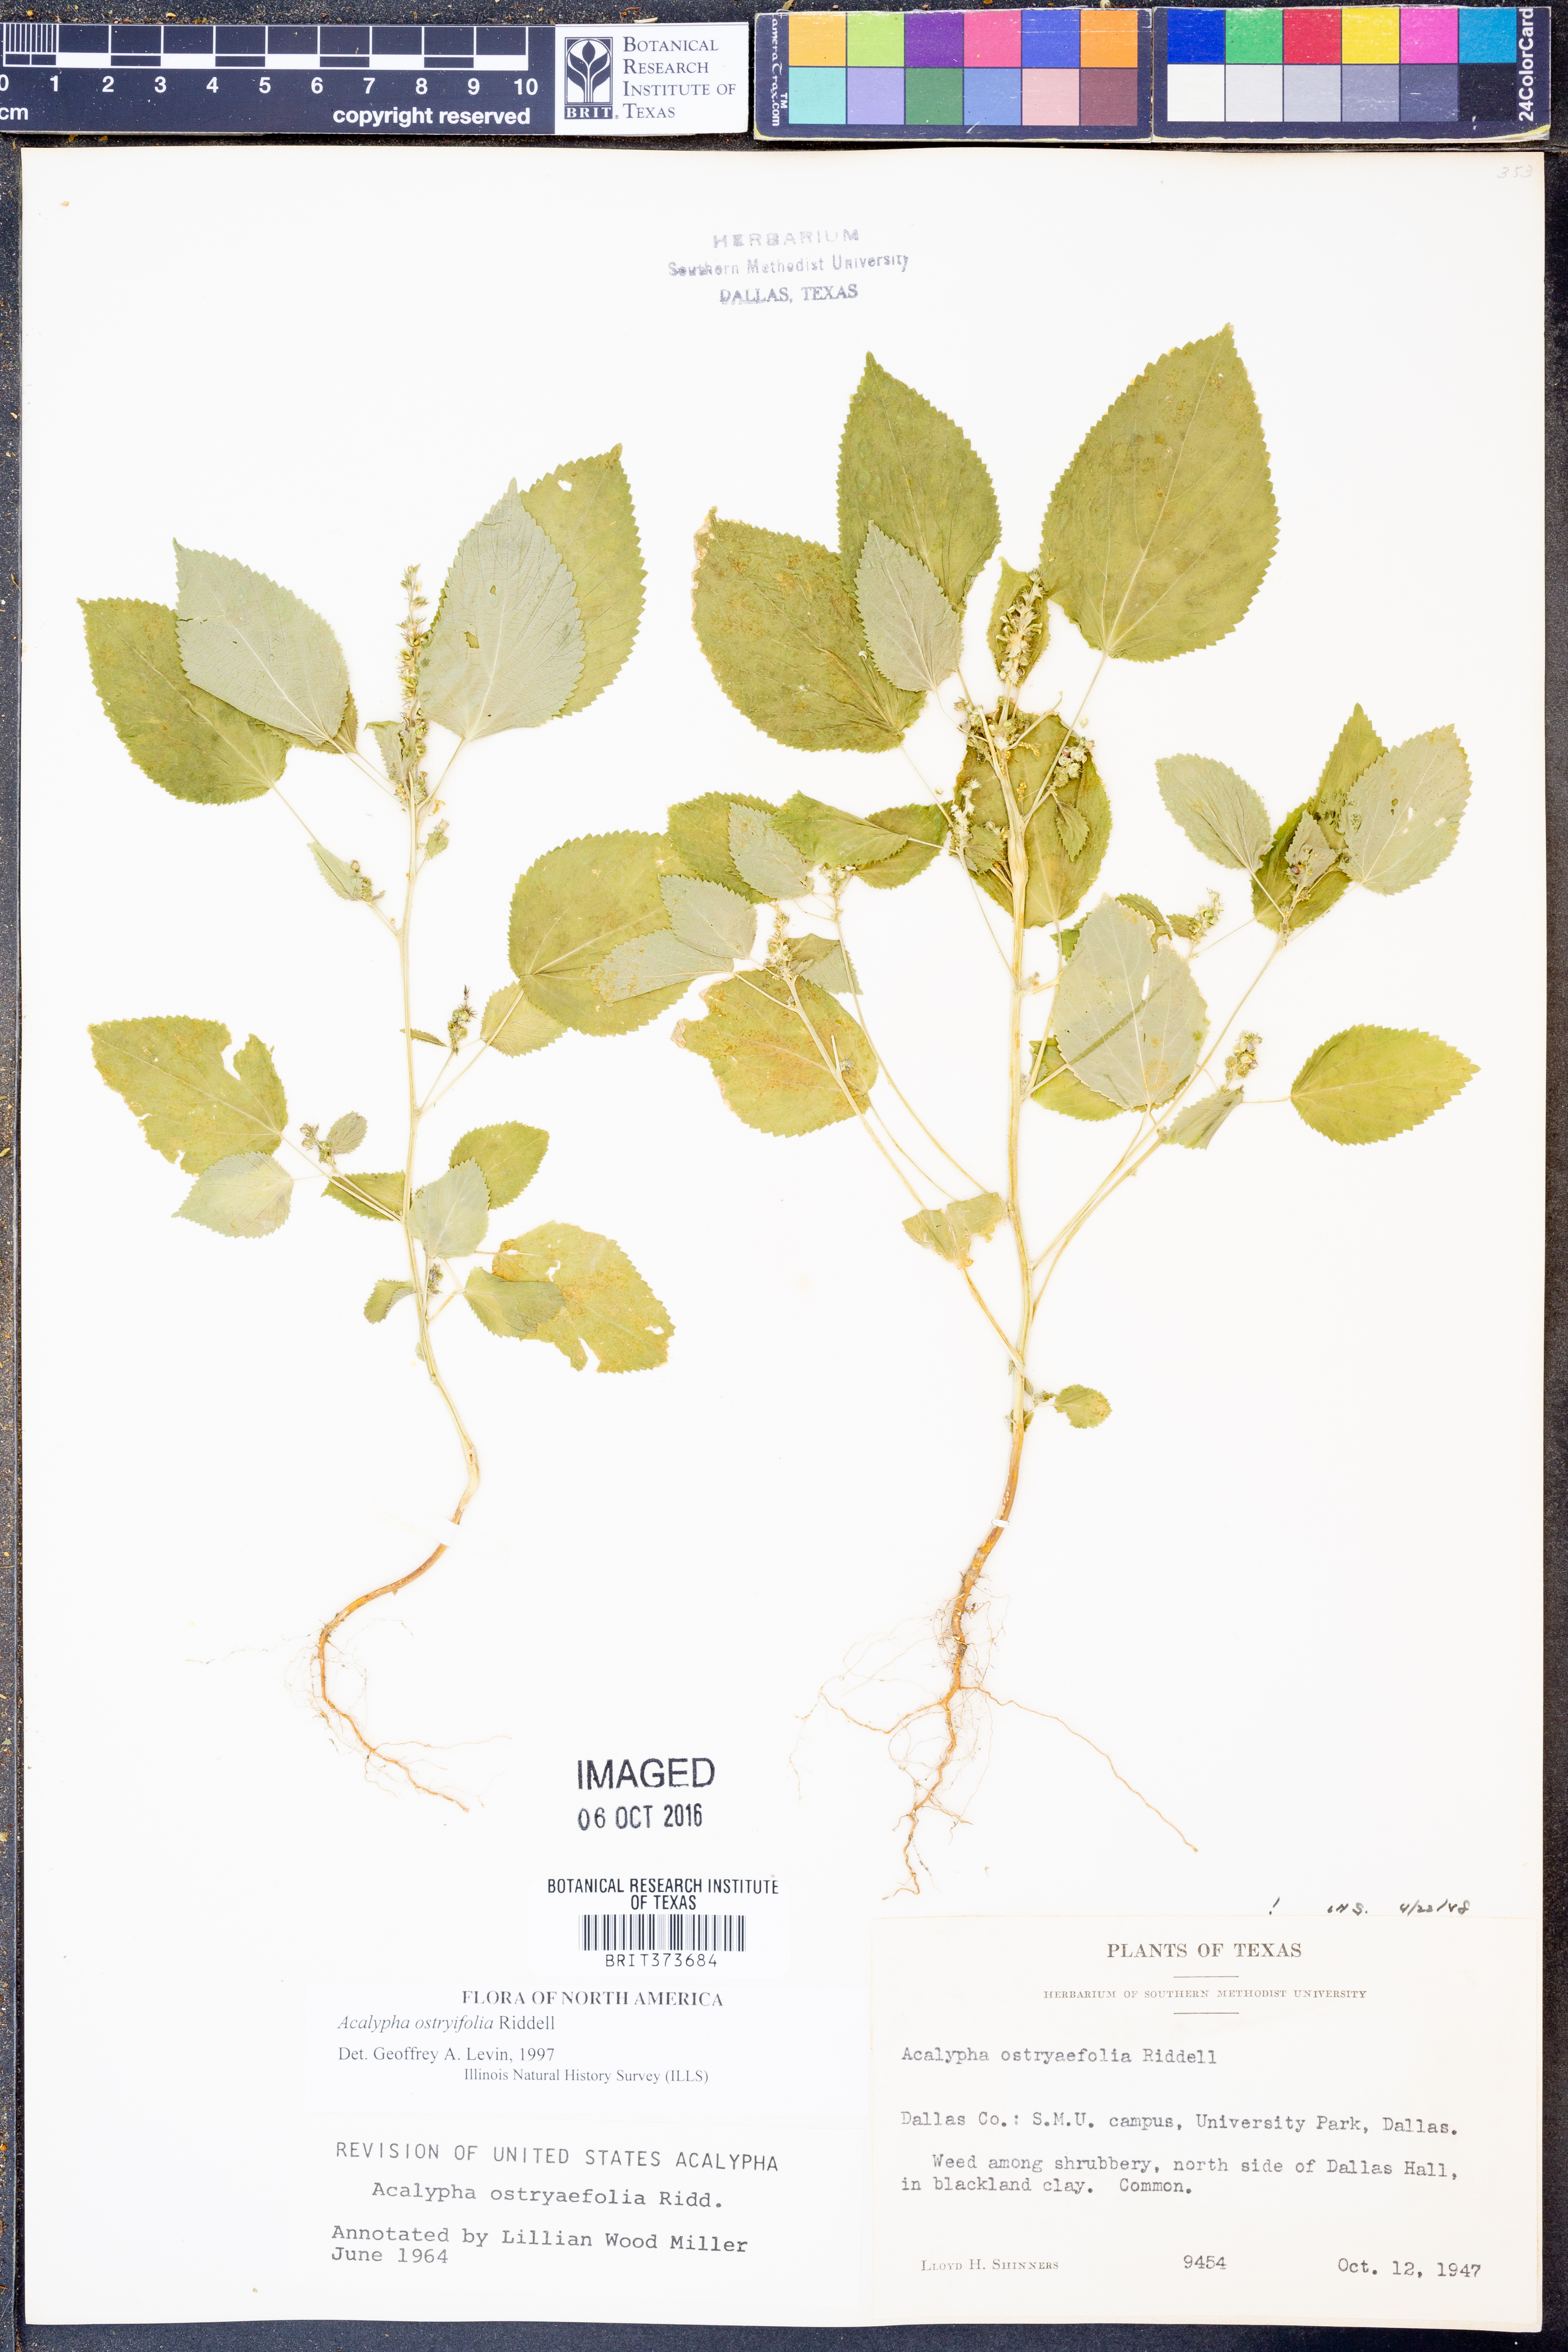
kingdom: Plantae
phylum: Tracheophyta
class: Magnoliopsida
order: Malpighiales
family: Euphorbiaceae
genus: Acalypha
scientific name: Acalypha persimilis
